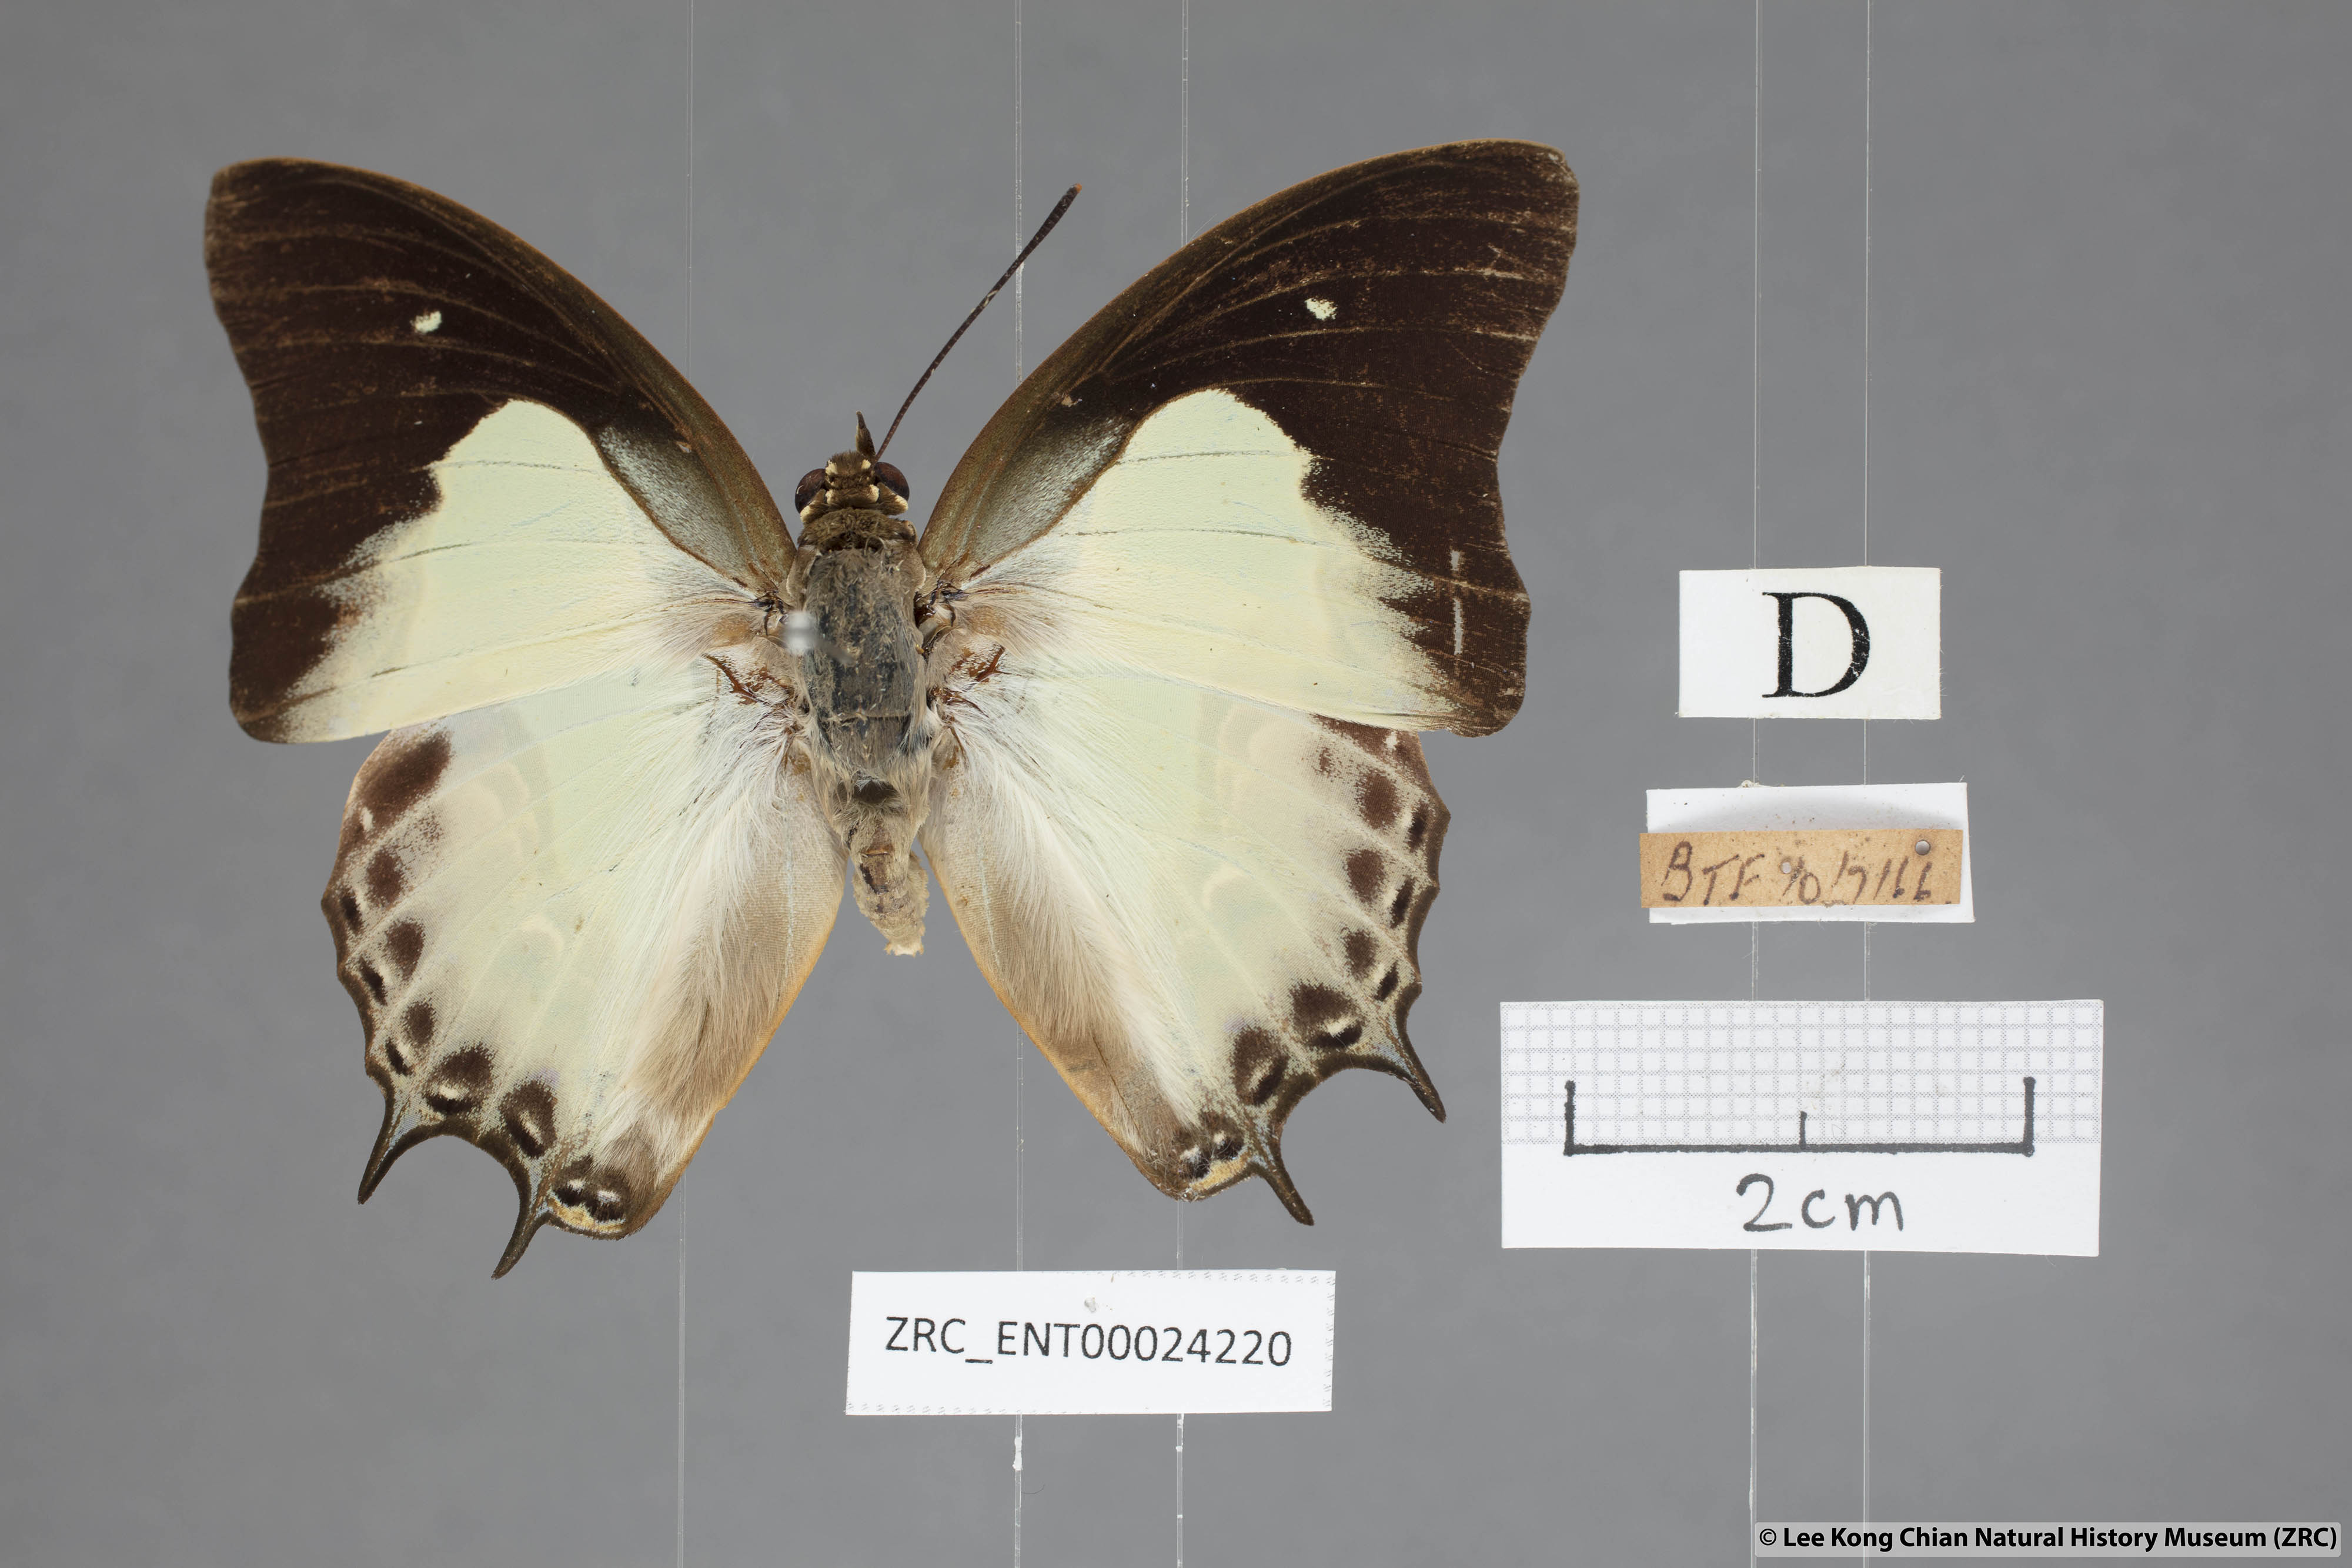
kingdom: Animalia
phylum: Arthropoda
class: Insecta
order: Lepidoptera
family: Nymphalidae
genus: Polyura
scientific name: Polyura hebe
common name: Plain nawab
